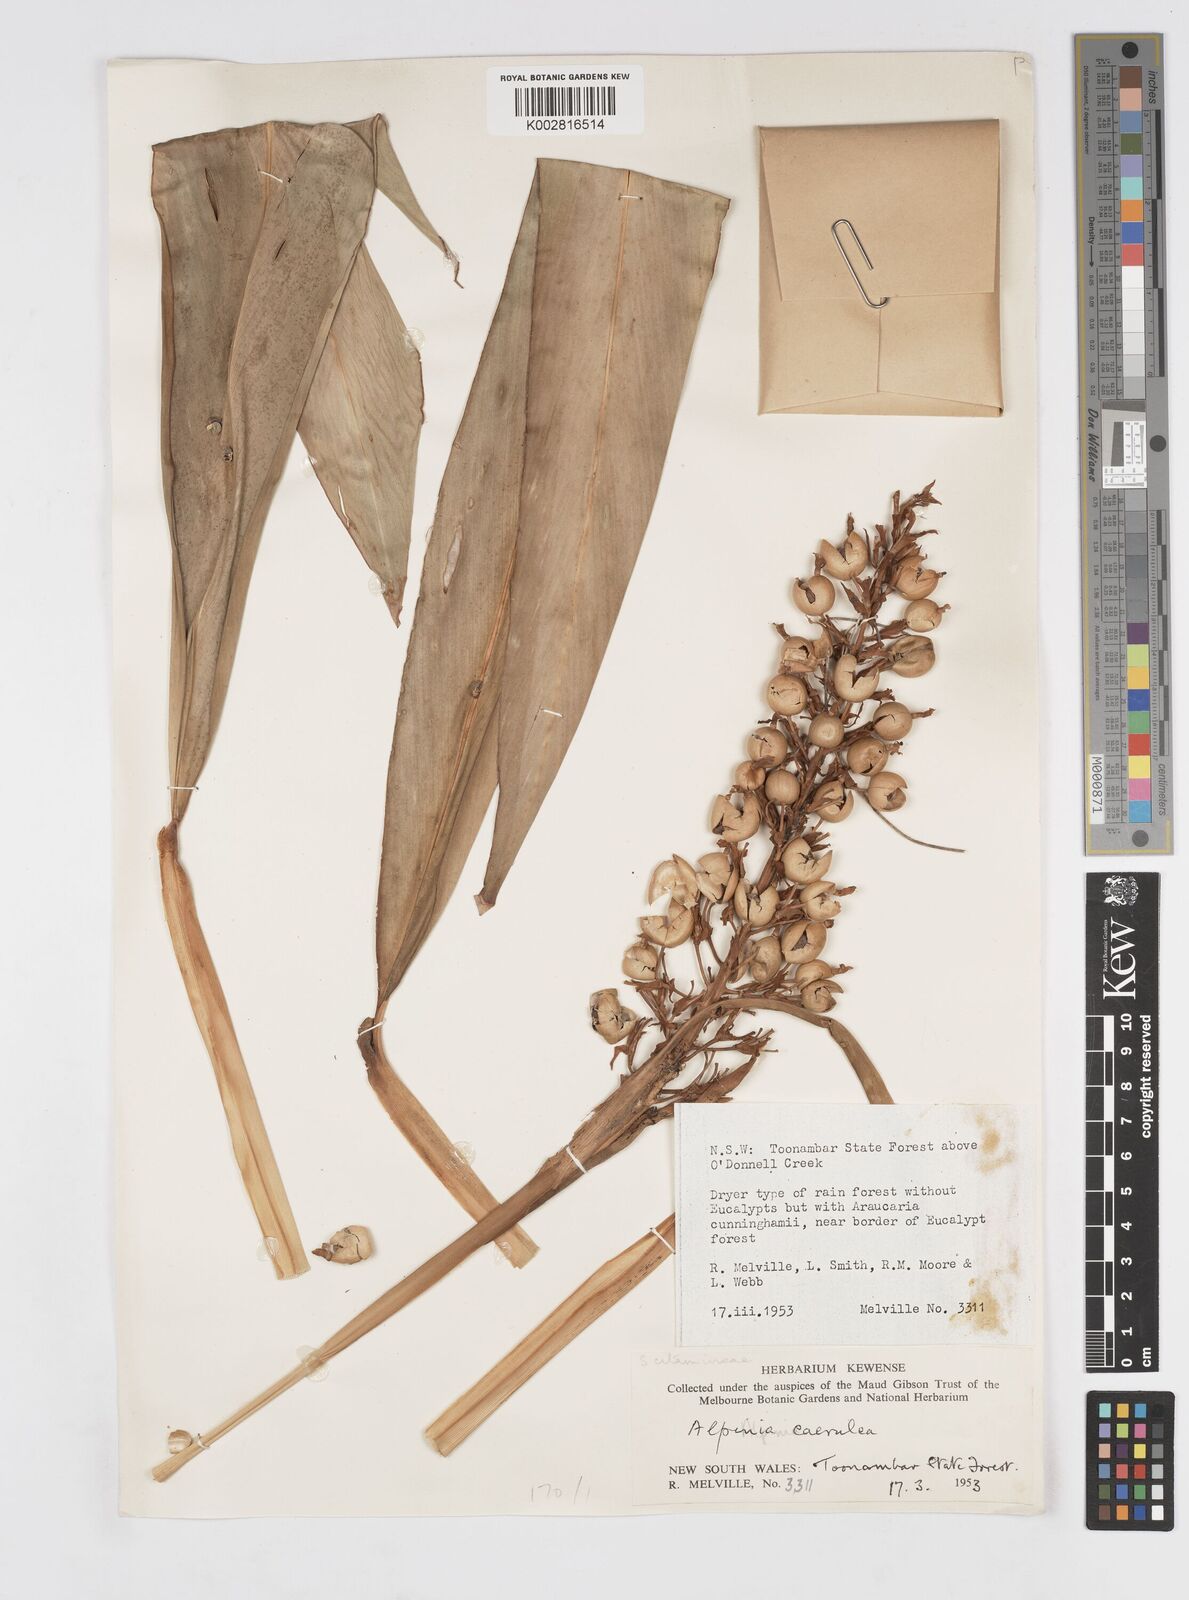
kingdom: Plantae
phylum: Tracheophyta
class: Liliopsida
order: Zingiberales
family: Zingiberaceae
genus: Alpinia
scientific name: Alpinia
